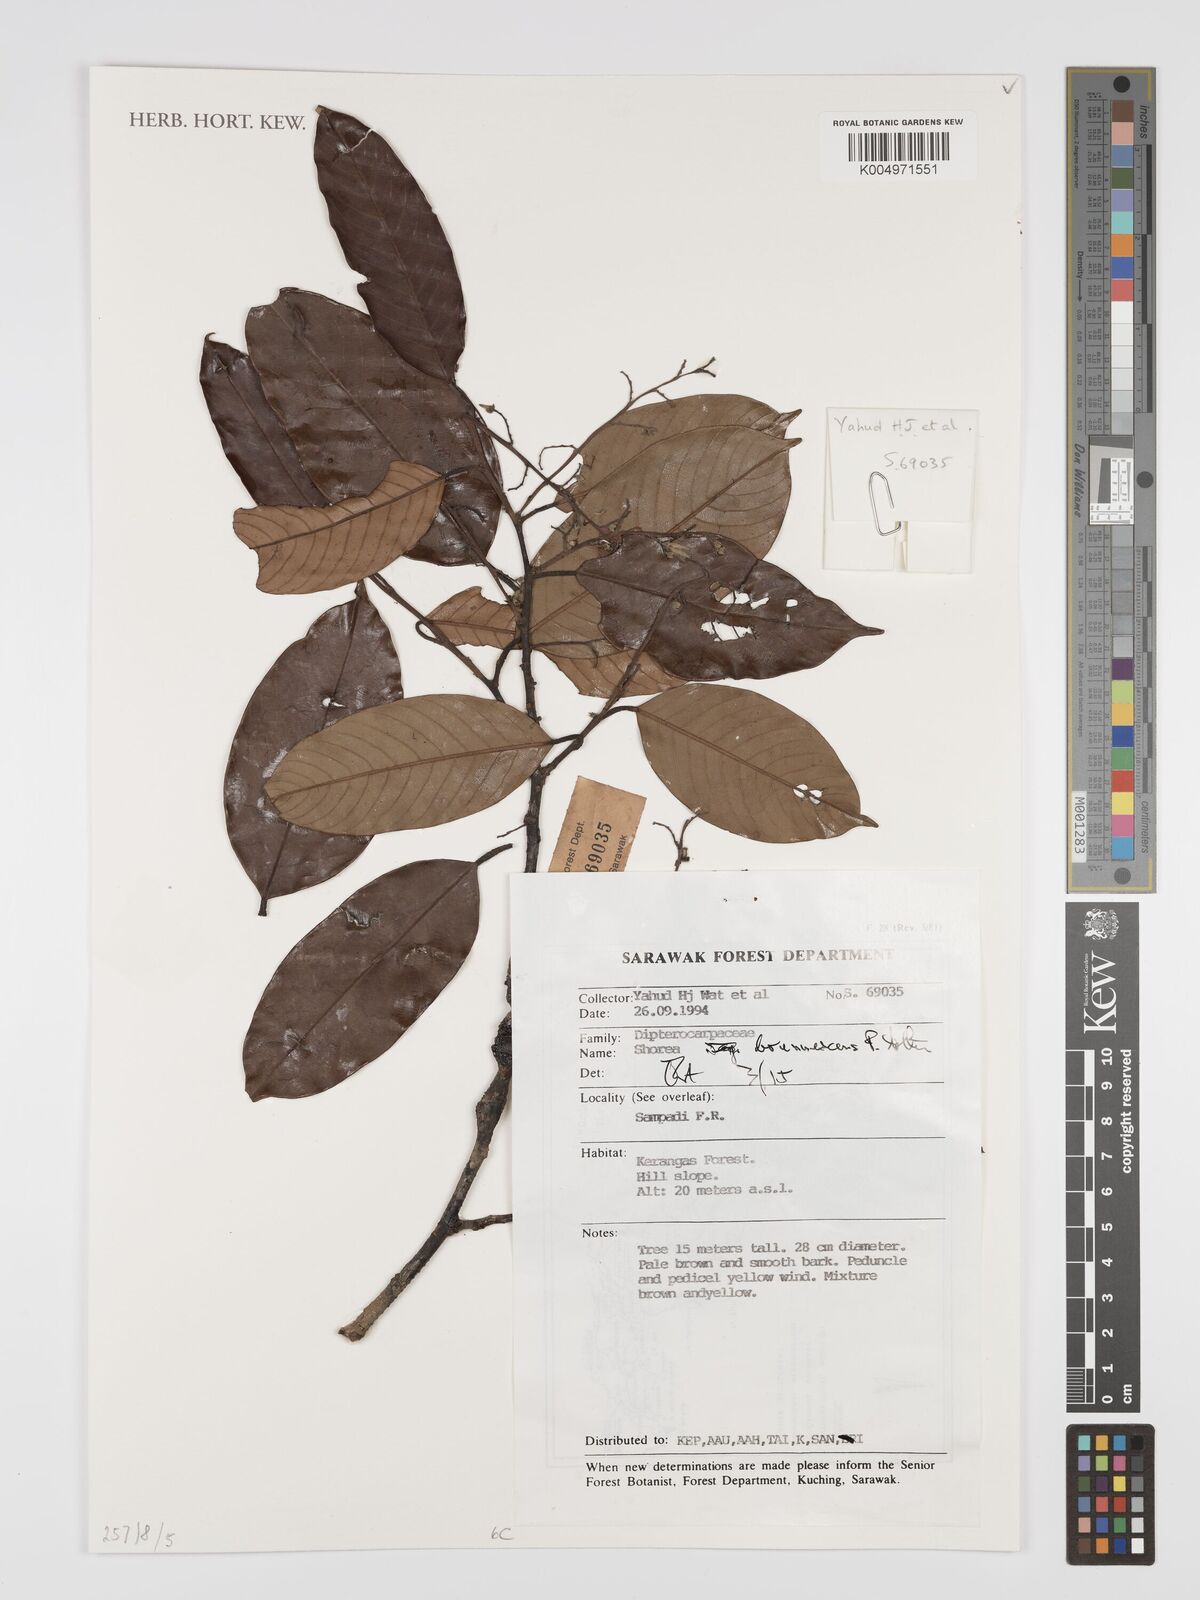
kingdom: Plantae
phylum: Tracheophyta
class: Magnoliopsida
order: Malvales
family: Dipterocarpaceae
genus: Shorea
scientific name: Shorea brunnescens
